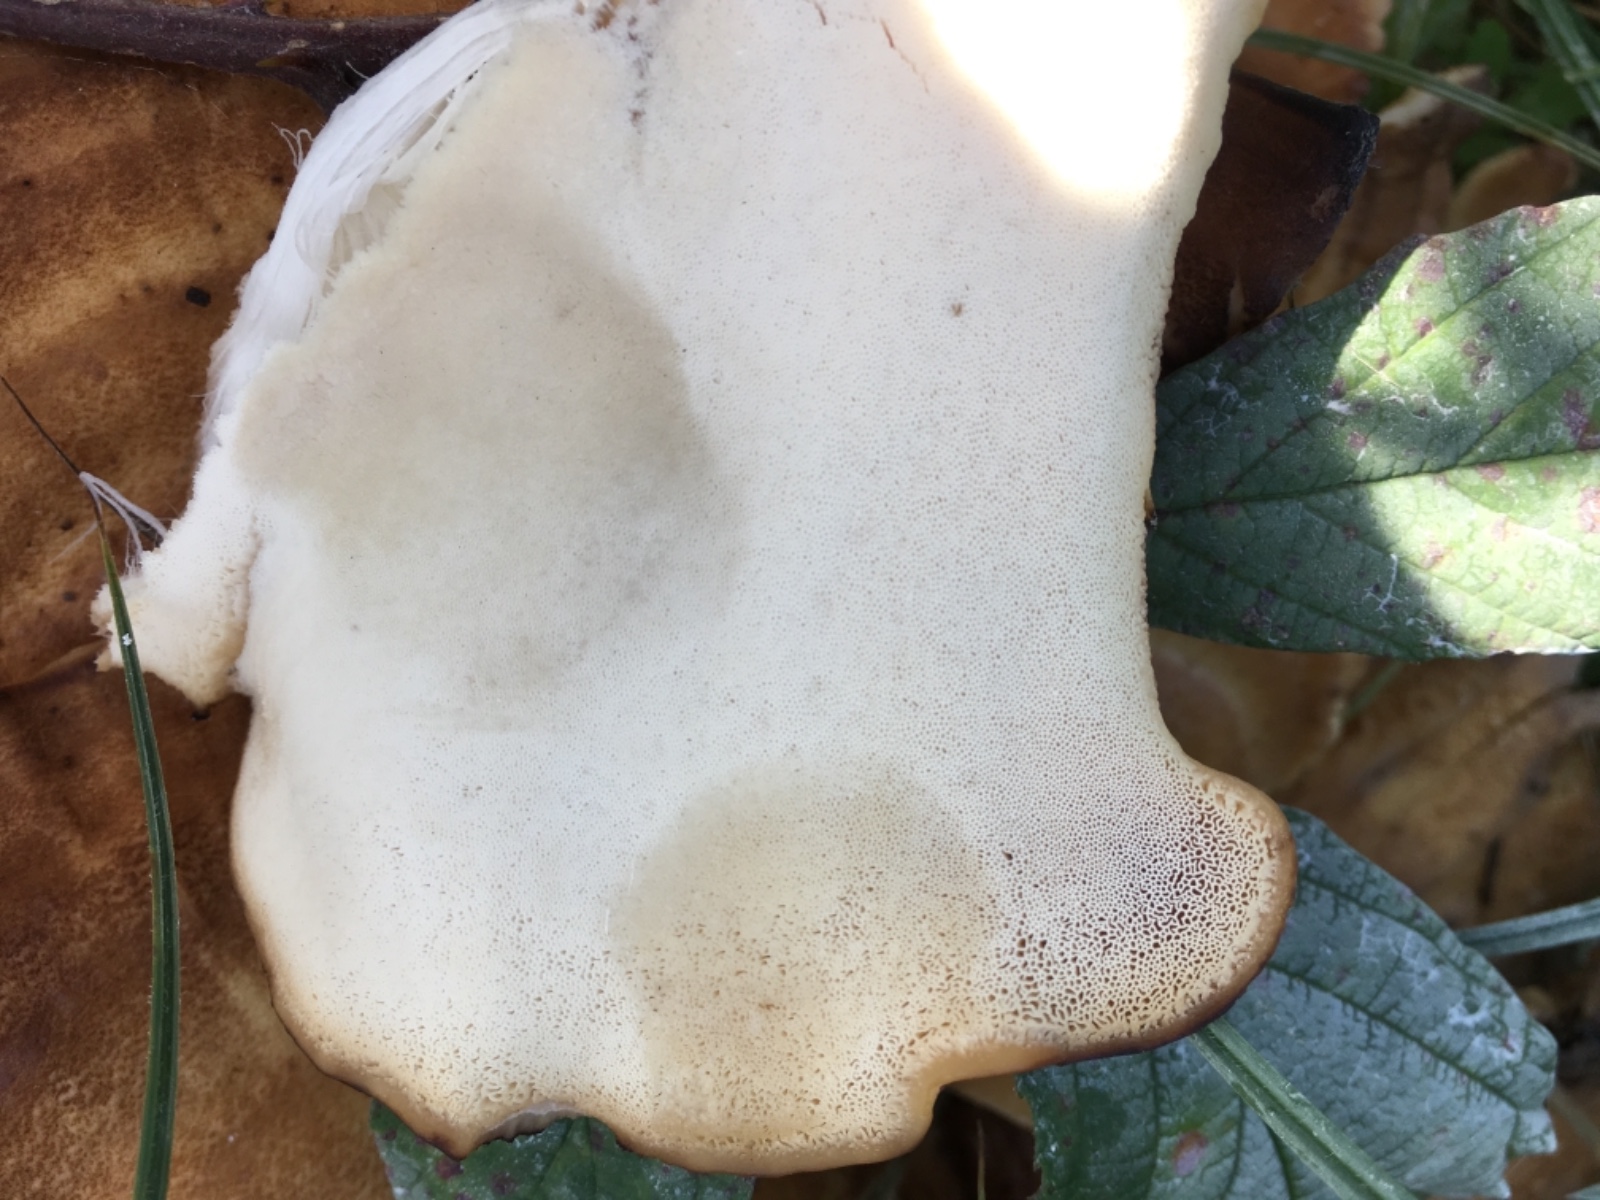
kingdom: Fungi
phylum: Basidiomycota
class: Agaricomycetes
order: Polyporales
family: Meripilaceae
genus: Meripilus
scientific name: Meripilus giganteus
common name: kæmpeporesvamp
